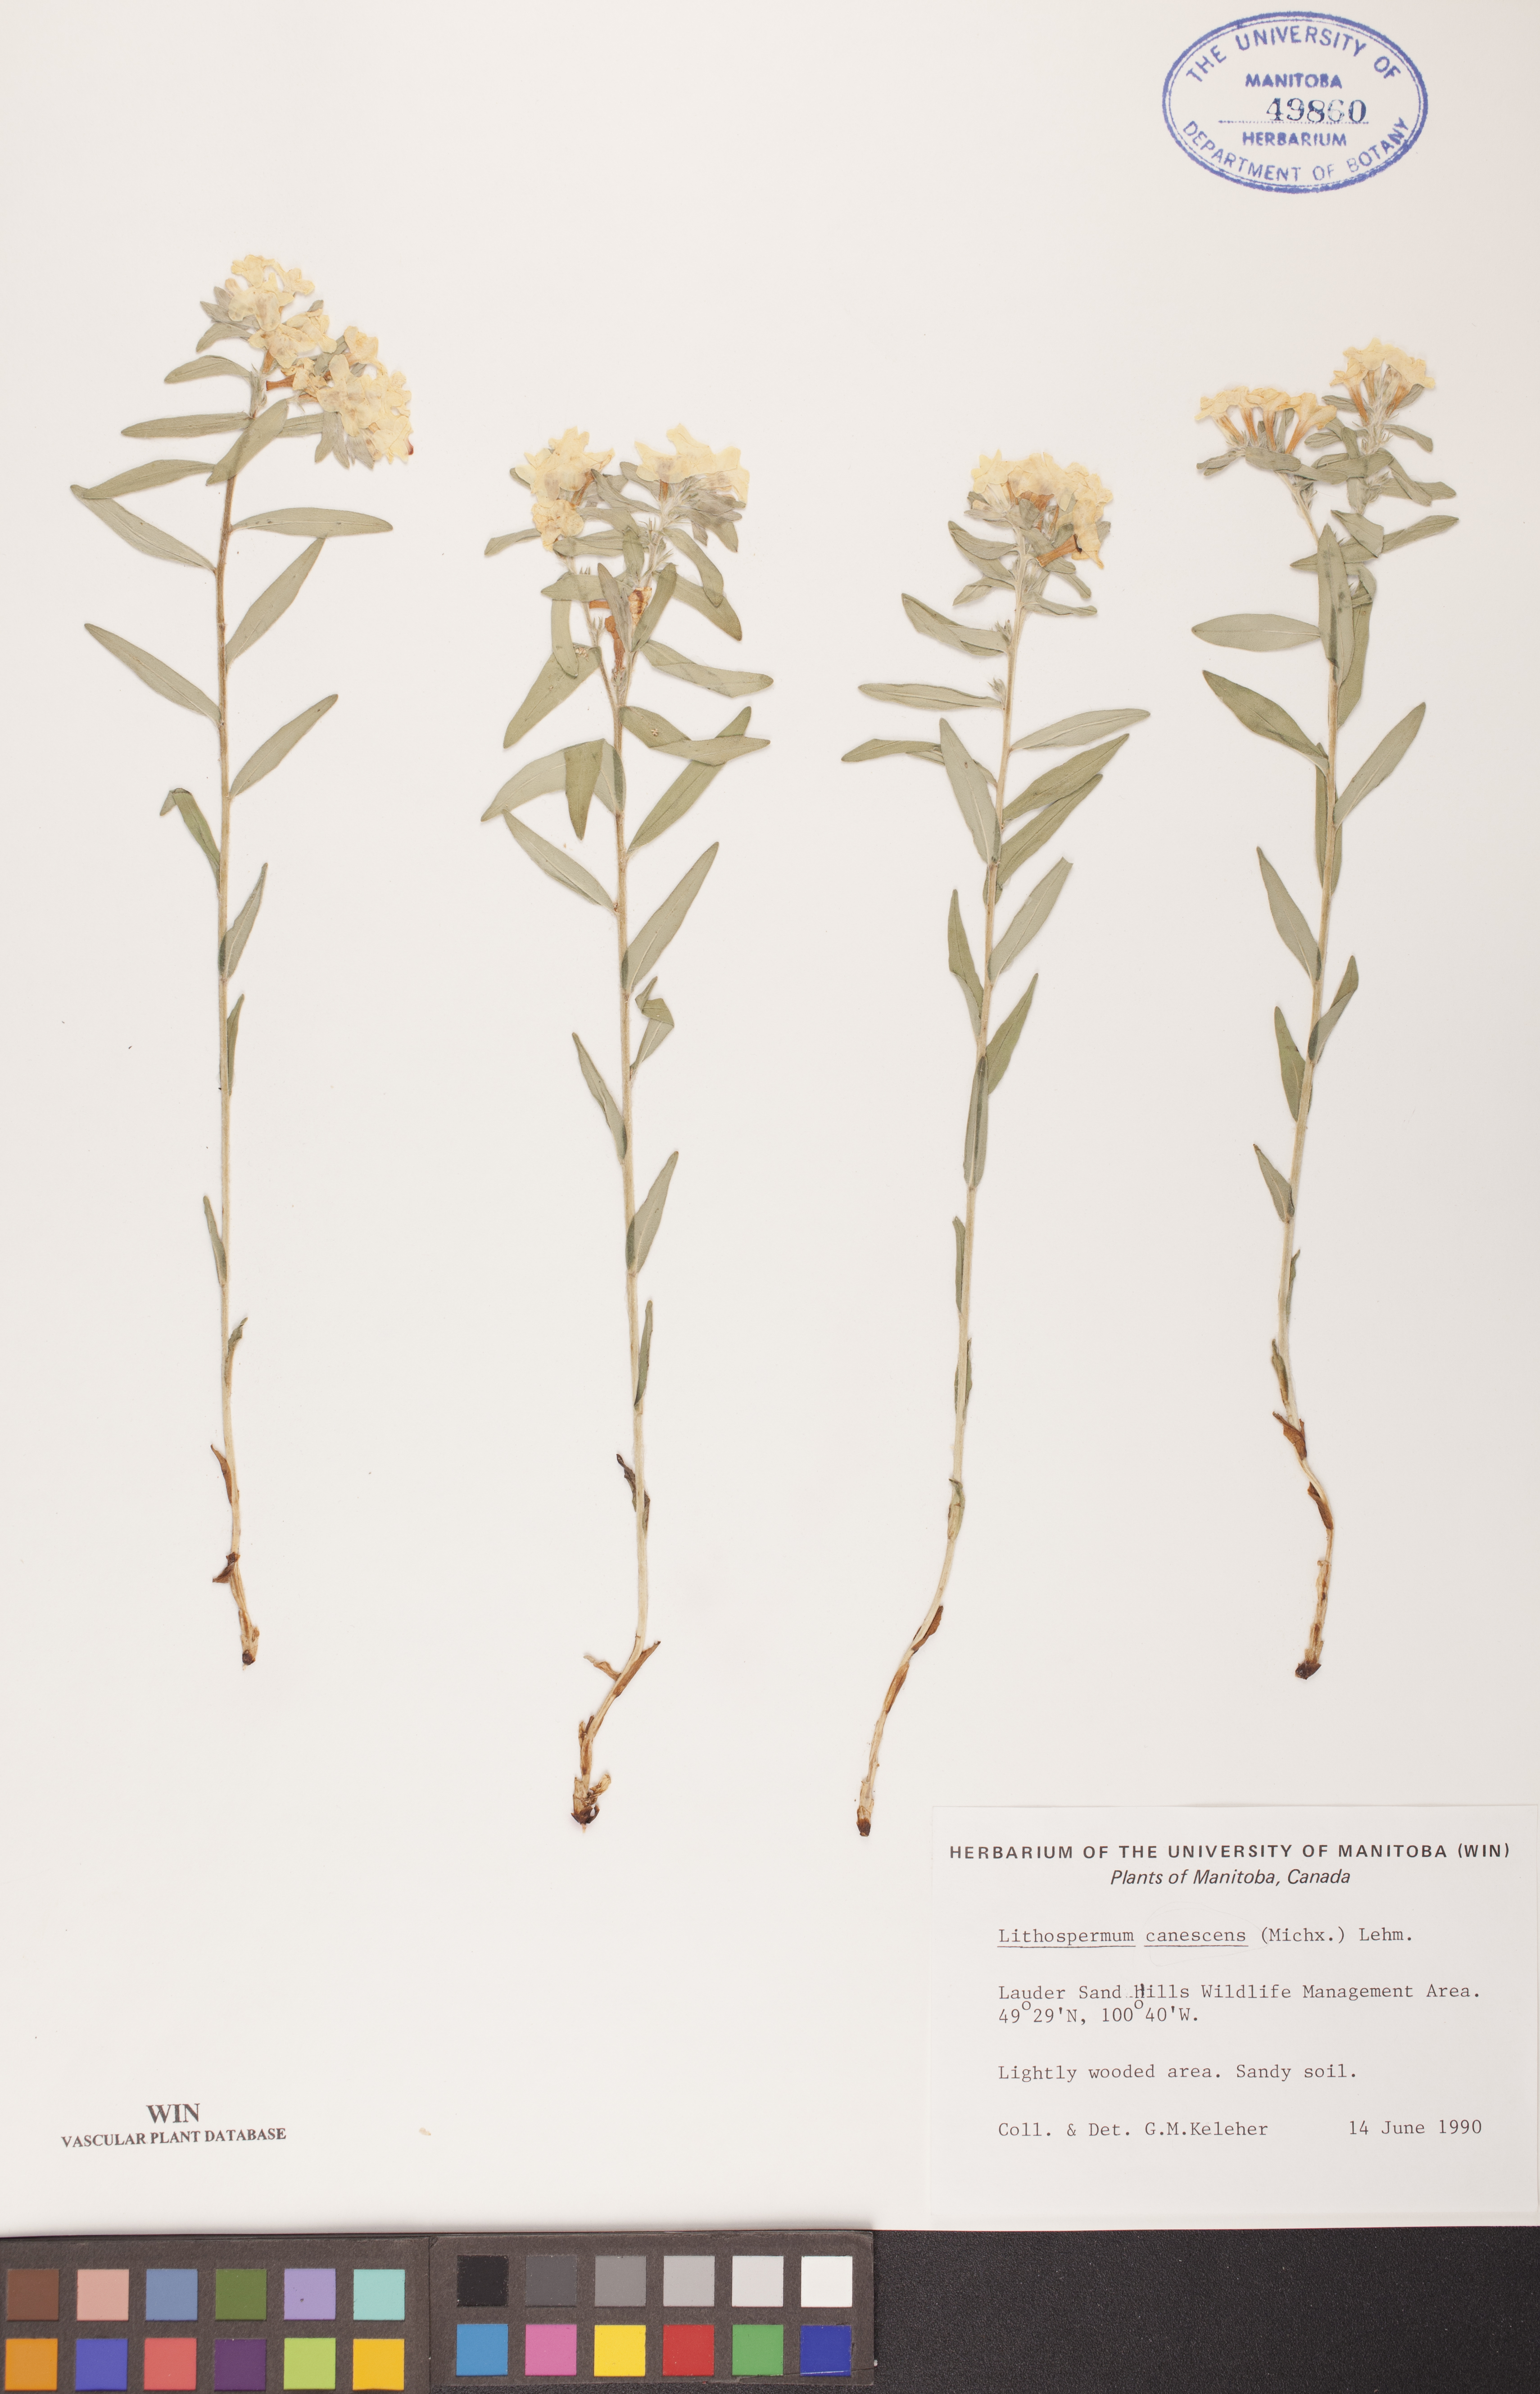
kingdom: Plantae
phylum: Tracheophyta
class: Magnoliopsida
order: Boraginales
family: Boraginaceae
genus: Lithospermum
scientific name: Lithospermum canescens
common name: Hoary puccoon
